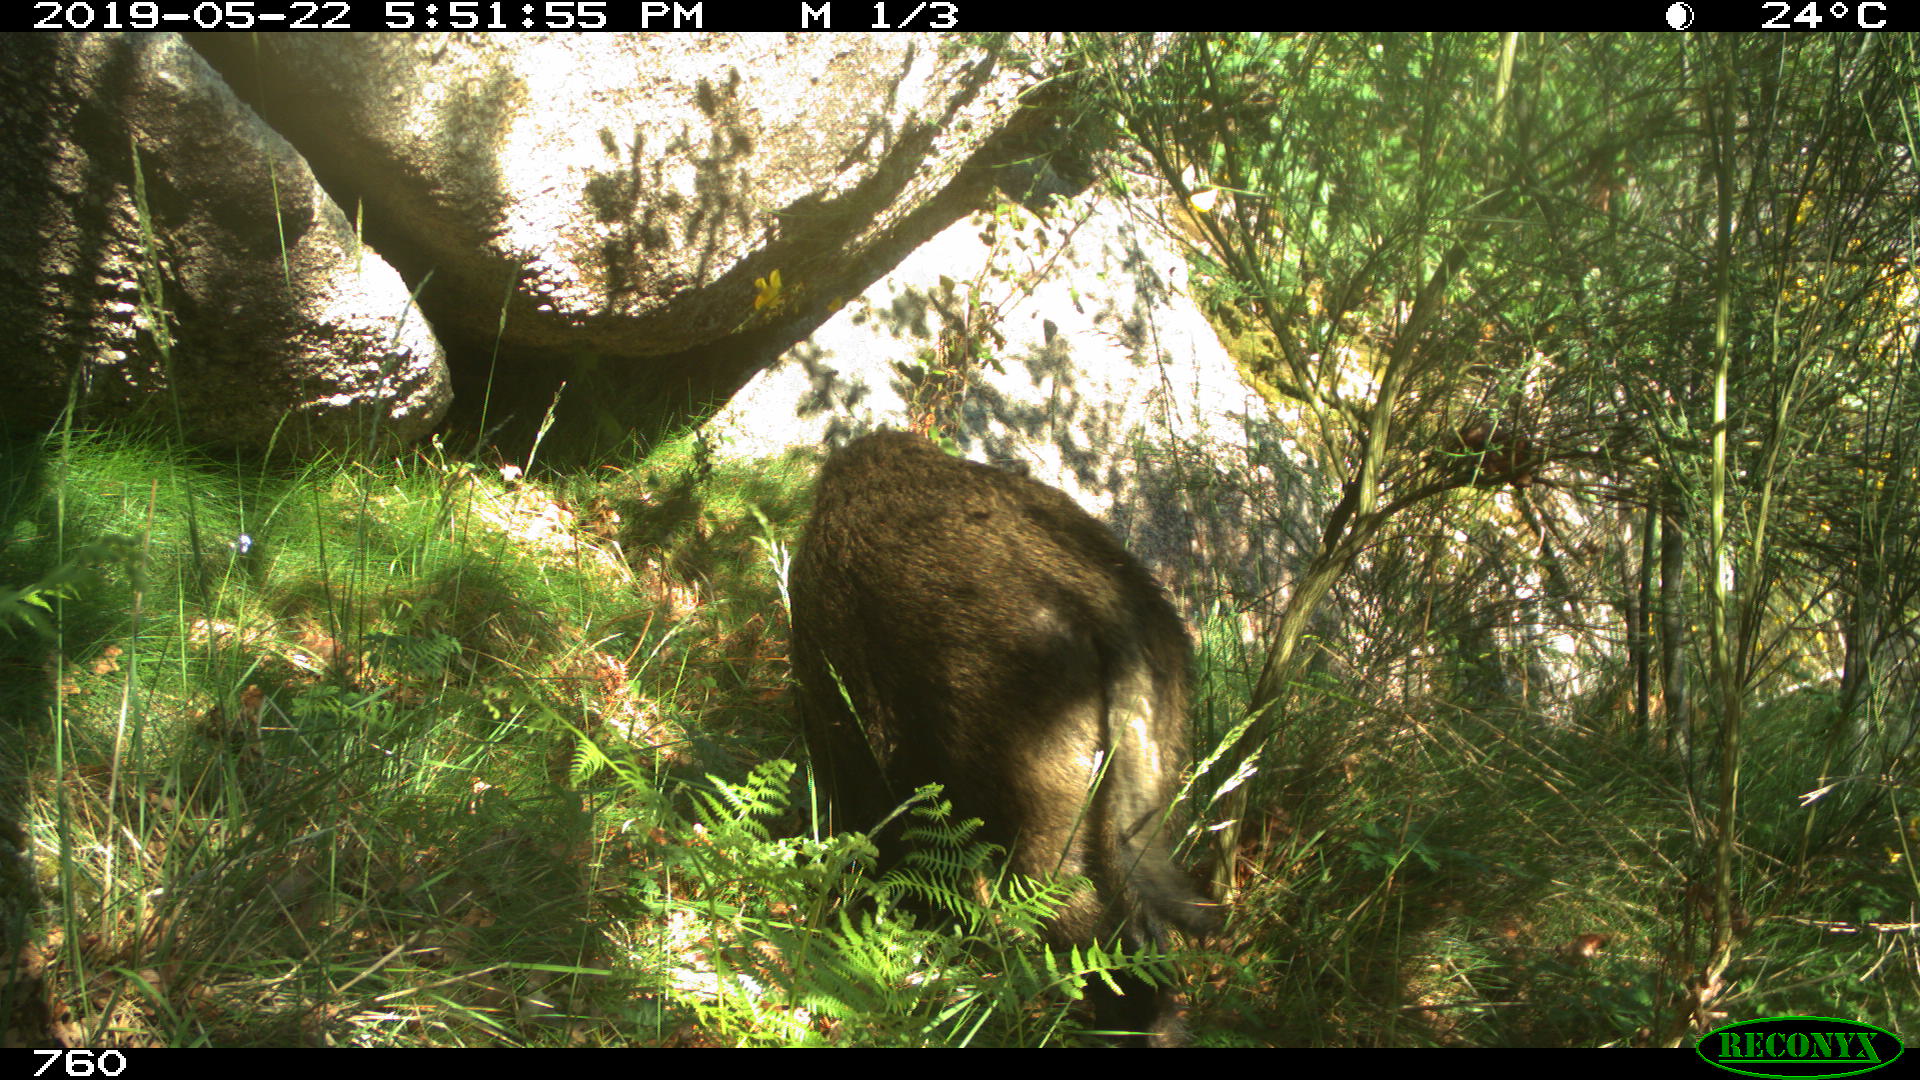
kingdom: Animalia
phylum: Chordata
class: Mammalia
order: Artiodactyla
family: Suidae
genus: Sus
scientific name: Sus scrofa
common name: Wild boar
